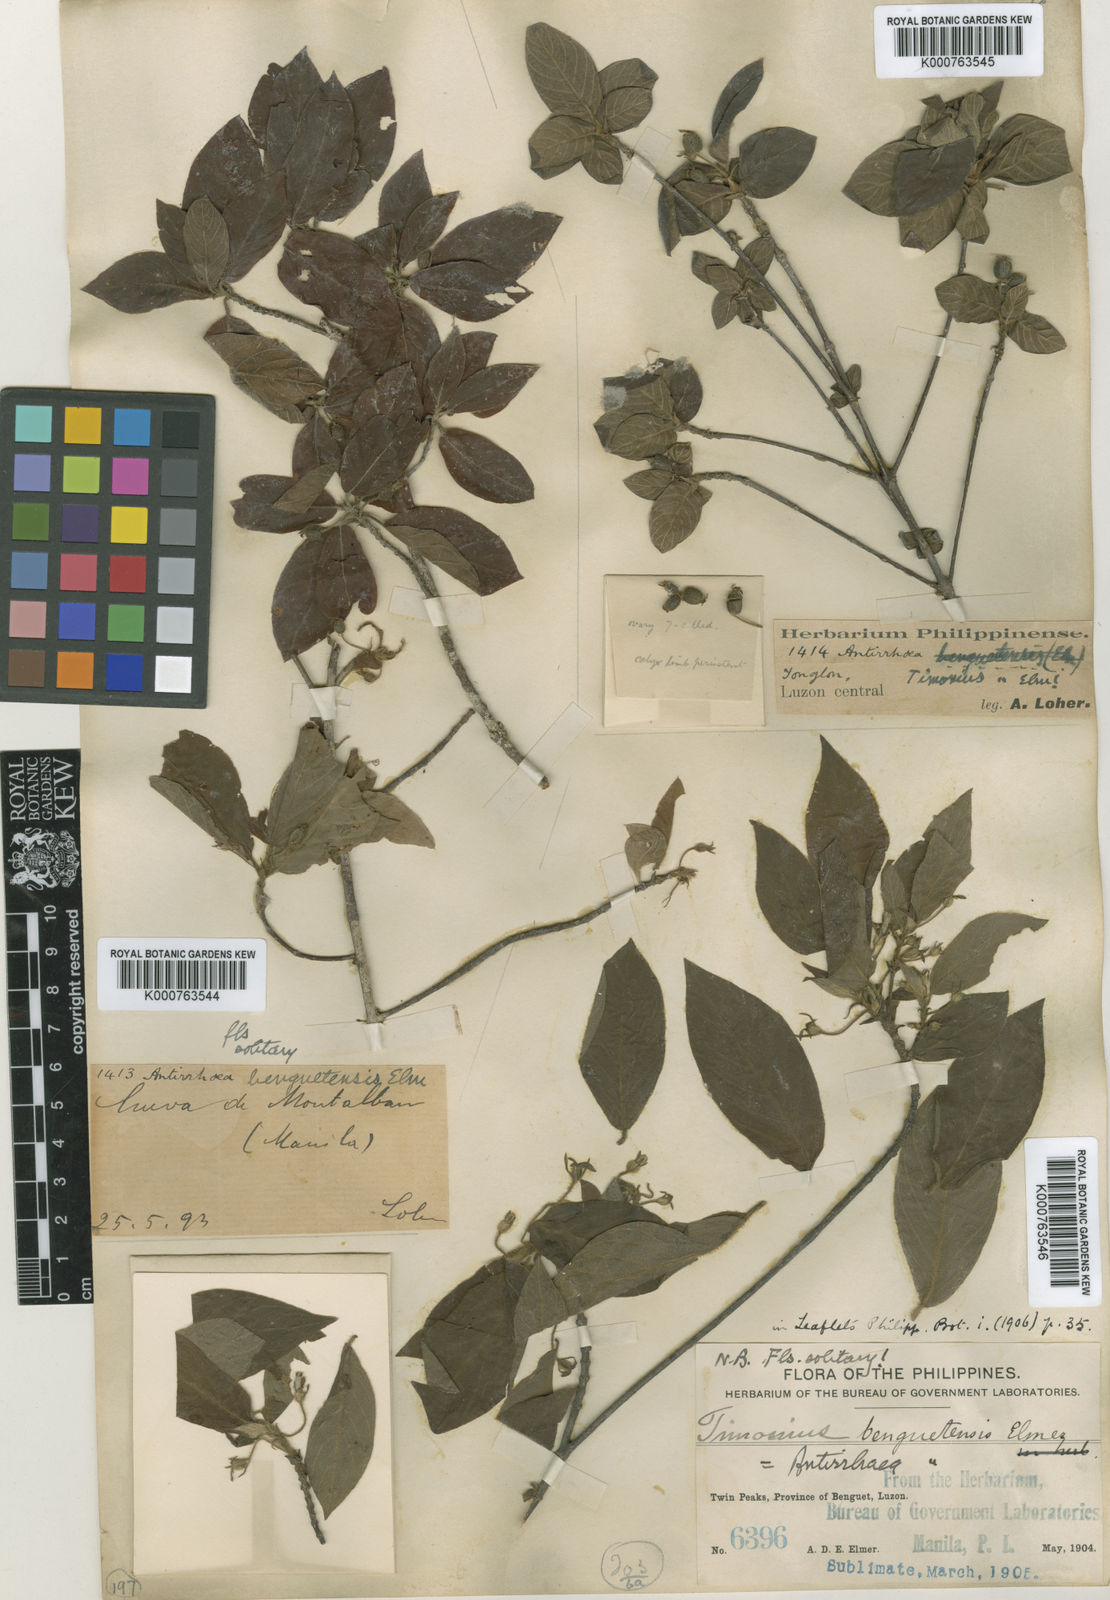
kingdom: Plantae
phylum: Tracheophyta
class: Magnoliopsida
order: Gentianales
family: Rubiaceae
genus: Guettardella
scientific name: Guettardella benguetensis
